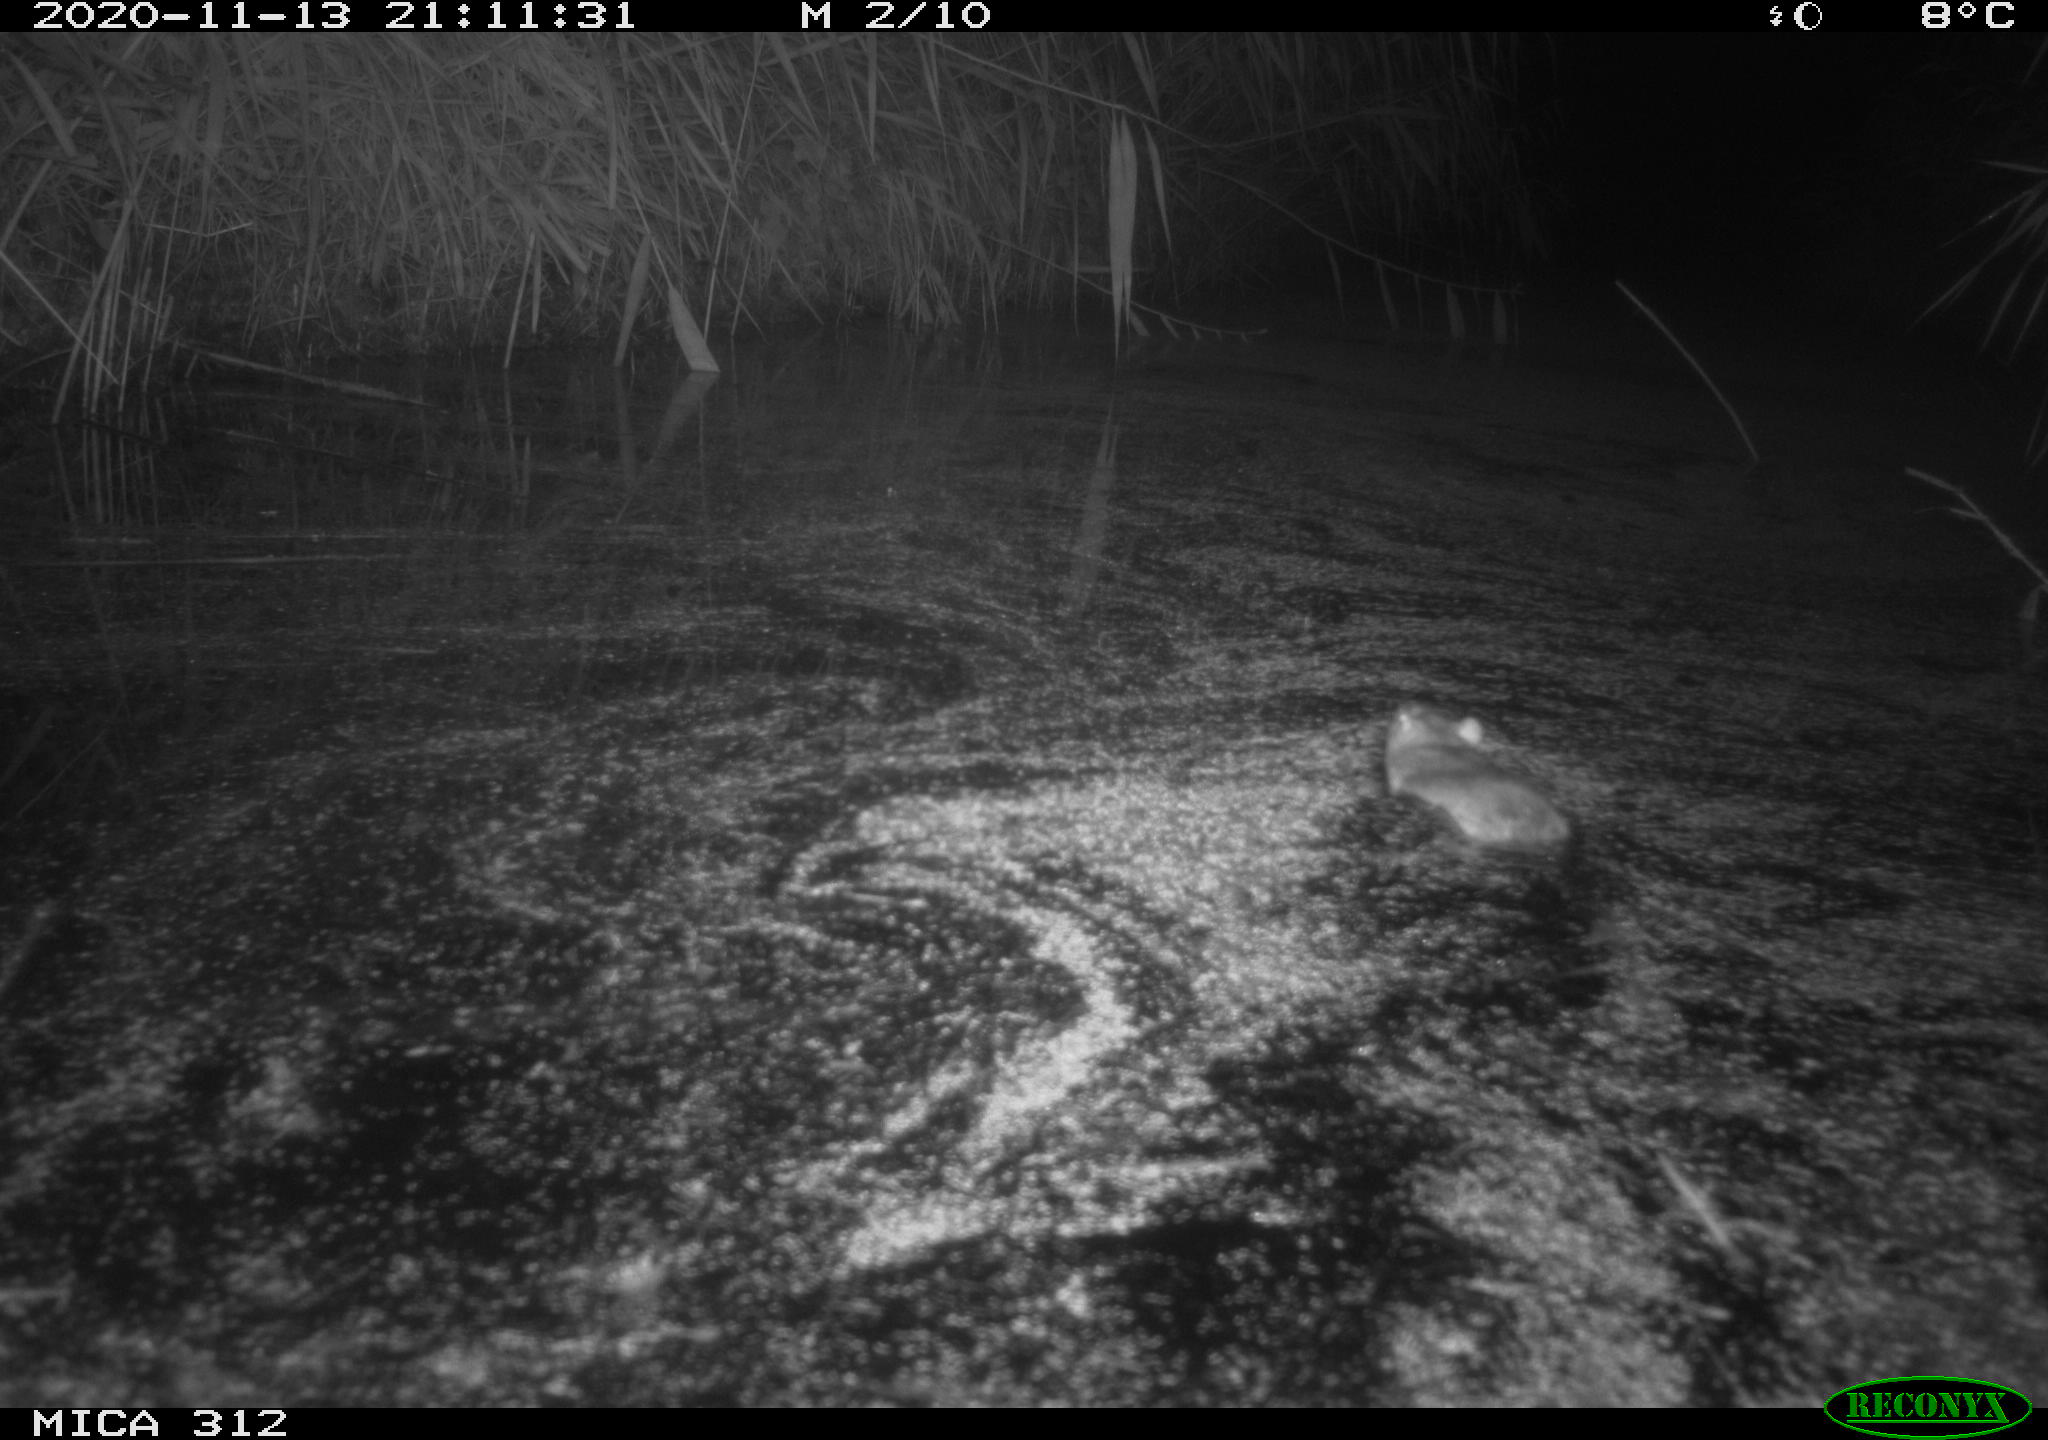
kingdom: Animalia
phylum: Chordata
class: Mammalia
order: Rodentia
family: Muridae
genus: Rattus
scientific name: Rattus norvegicus
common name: Brown rat
